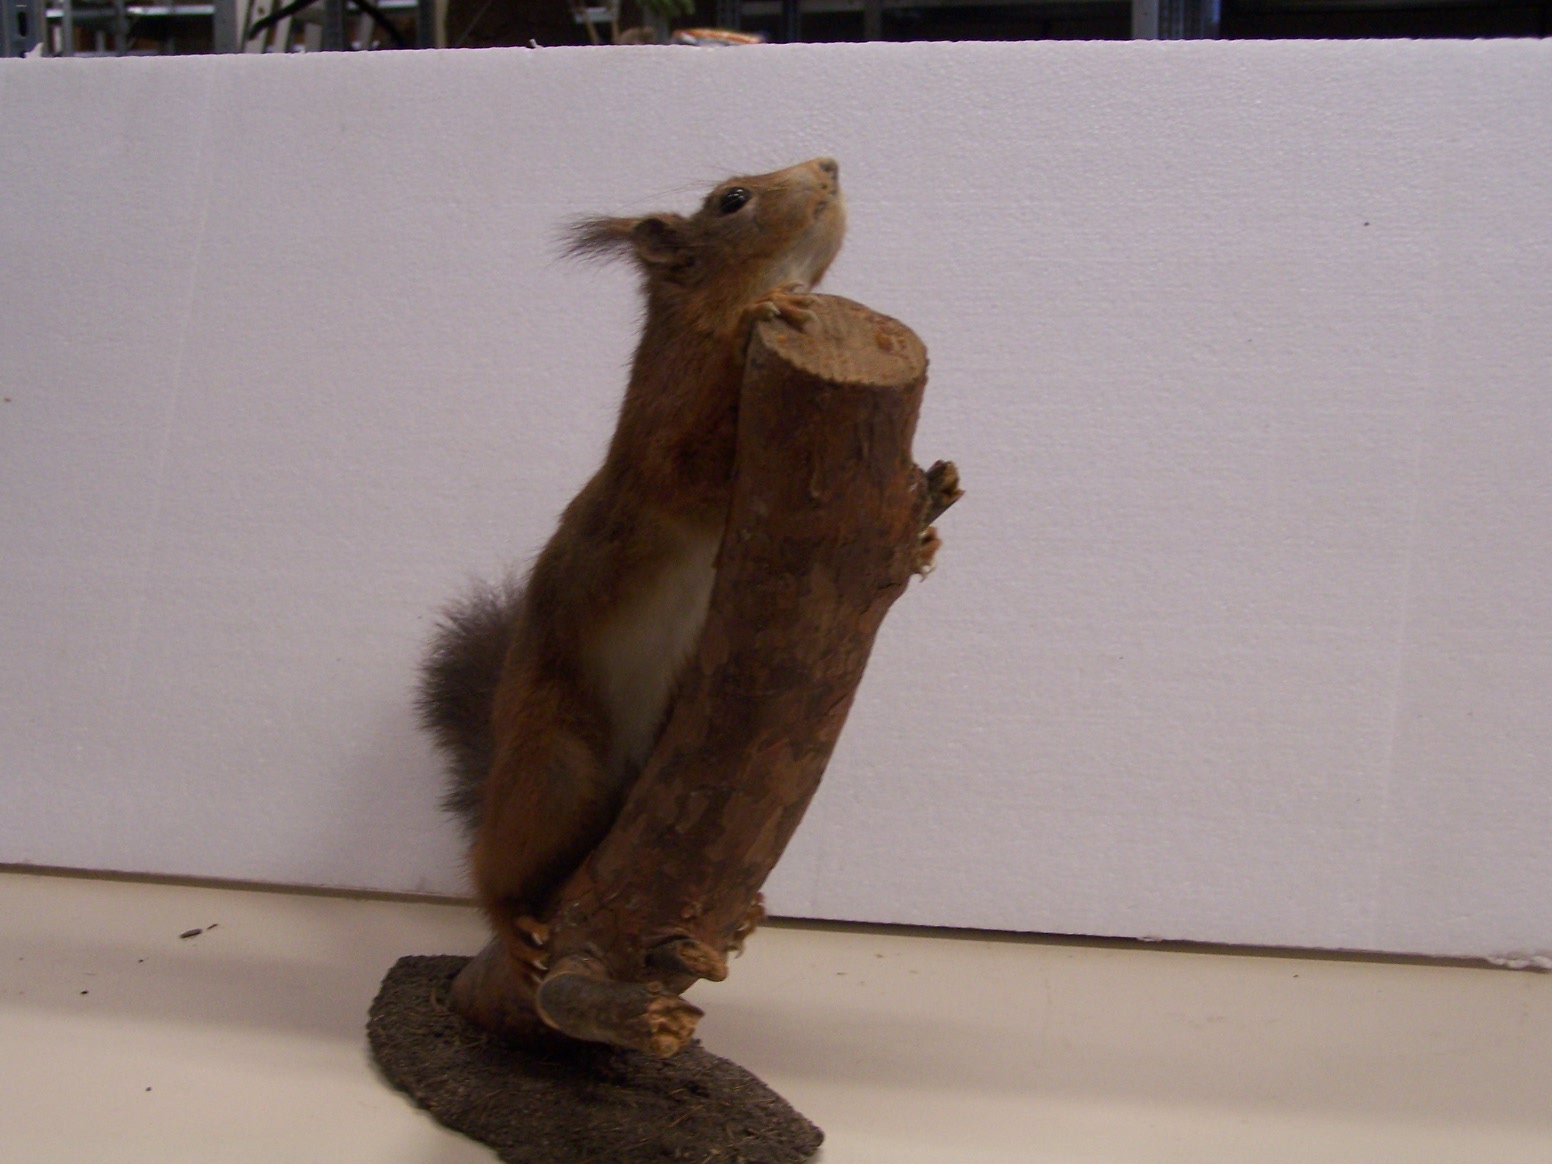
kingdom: Animalia
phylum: Chordata
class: Mammalia
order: Rodentia
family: Sciuridae
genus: Sciurus
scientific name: Sciurus vulgaris
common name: Eurasian red squirrel
